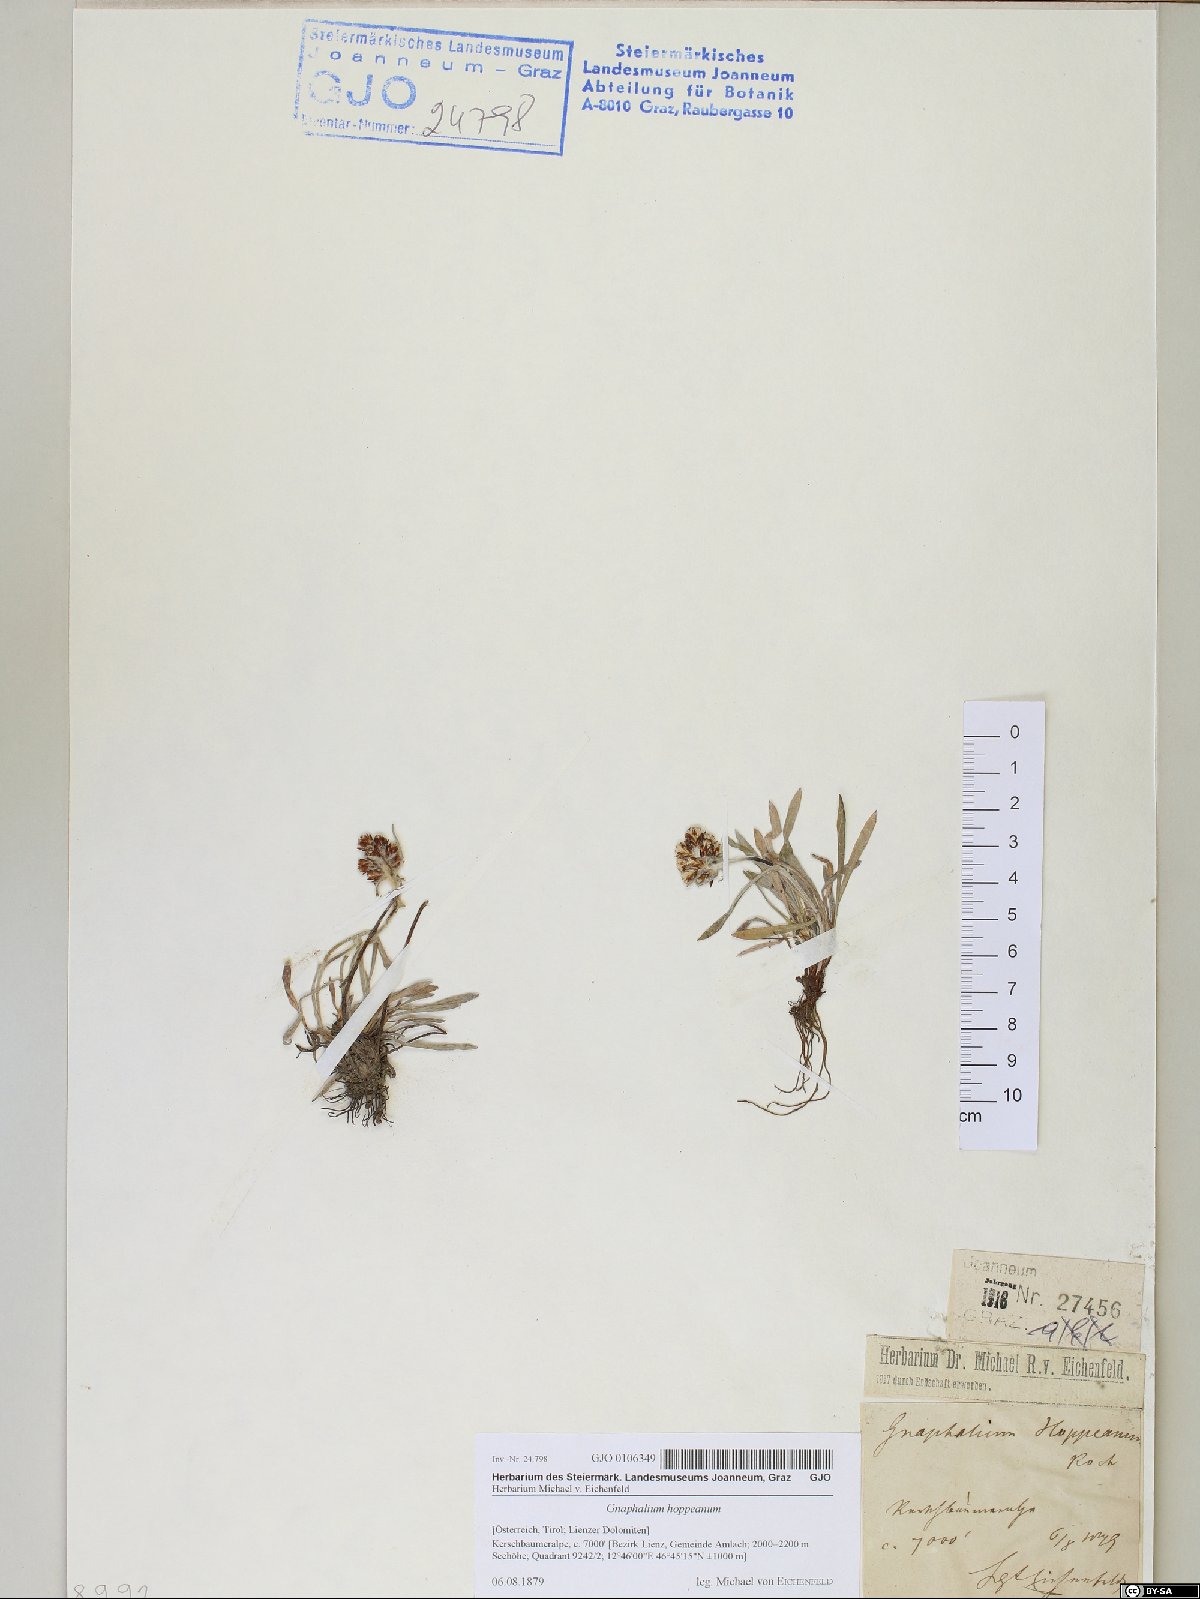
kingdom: Plantae
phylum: Tracheophyta
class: Magnoliopsida
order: Asterales
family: Asteraceae
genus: Omalotheca
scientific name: Omalotheca hoppeana
